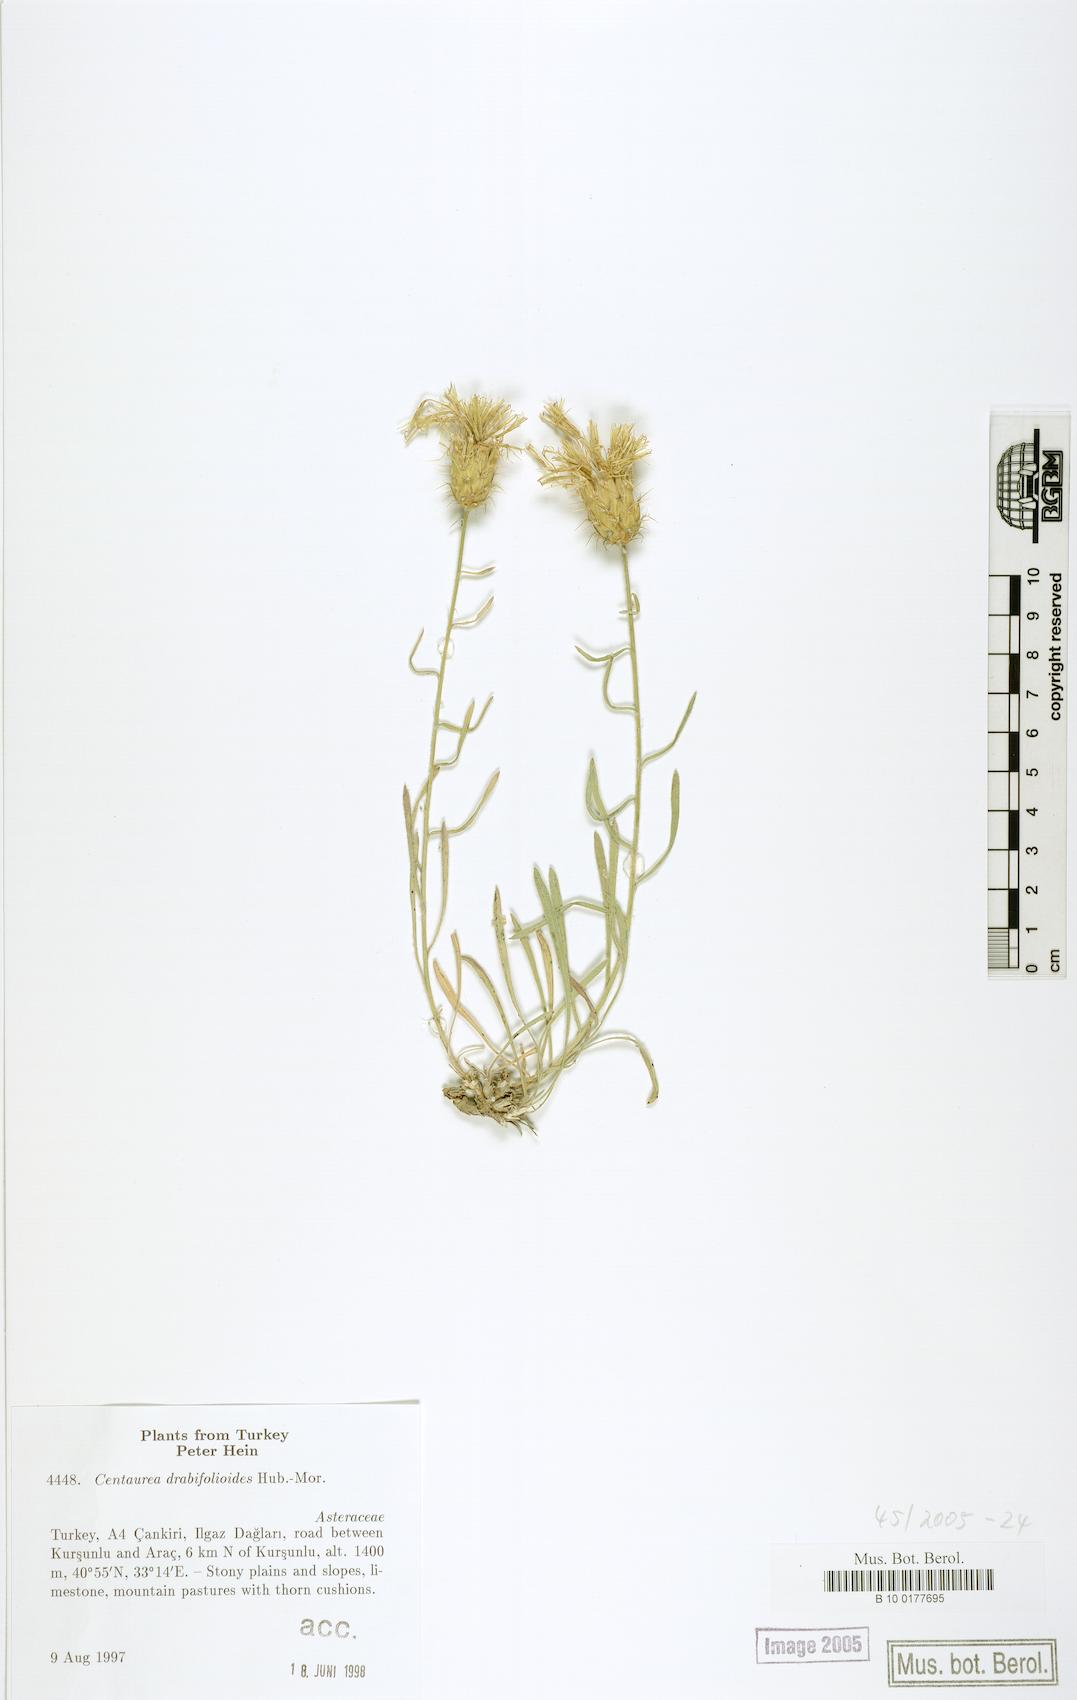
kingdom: Plantae
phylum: Tracheophyta
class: Magnoliopsida
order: Asterales
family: Asteraceae
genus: Centaurea
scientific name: Centaurea drabifolioides
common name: Whitlow-grass-leaved centaury
